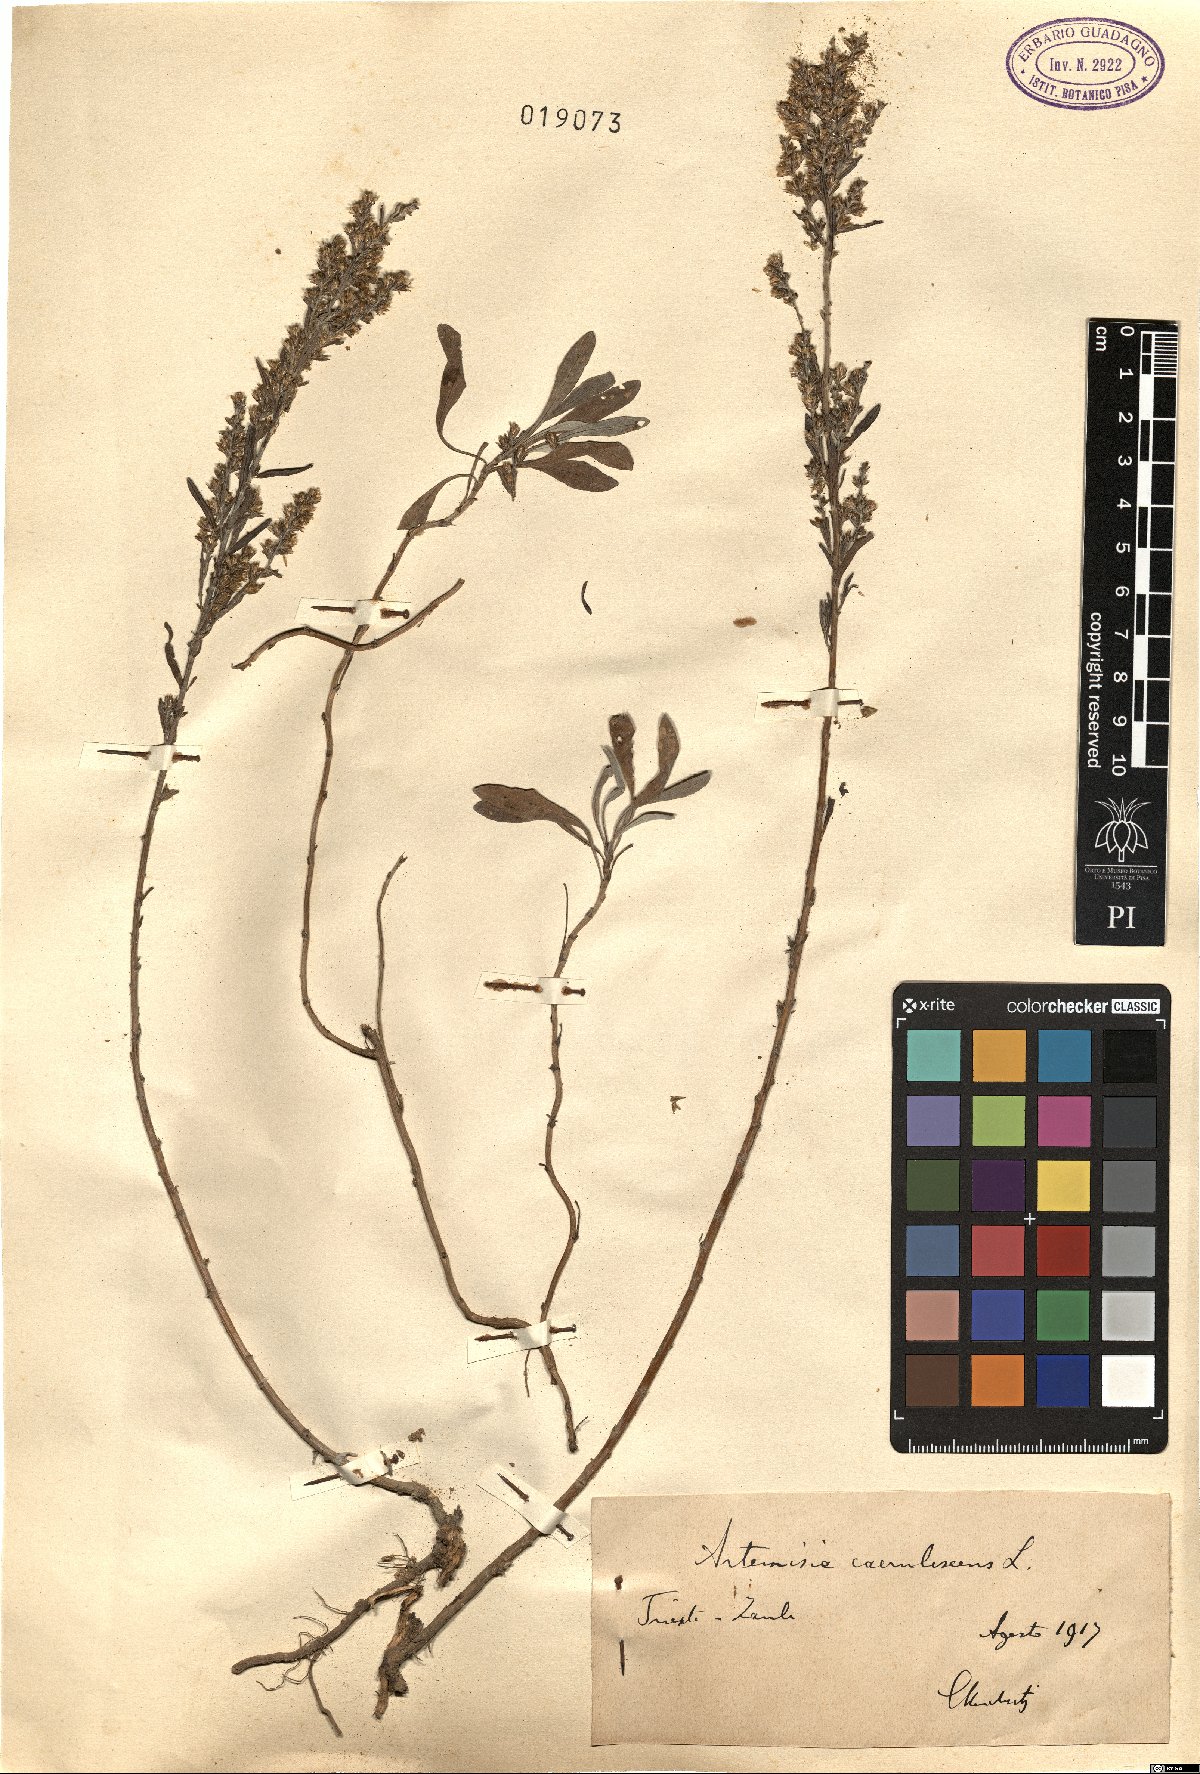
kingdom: Plantae
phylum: Tracheophyta
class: Magnoliopsida
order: Asterales
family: Asteraceae
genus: Artemisia
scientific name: Artemisia caerulescens
